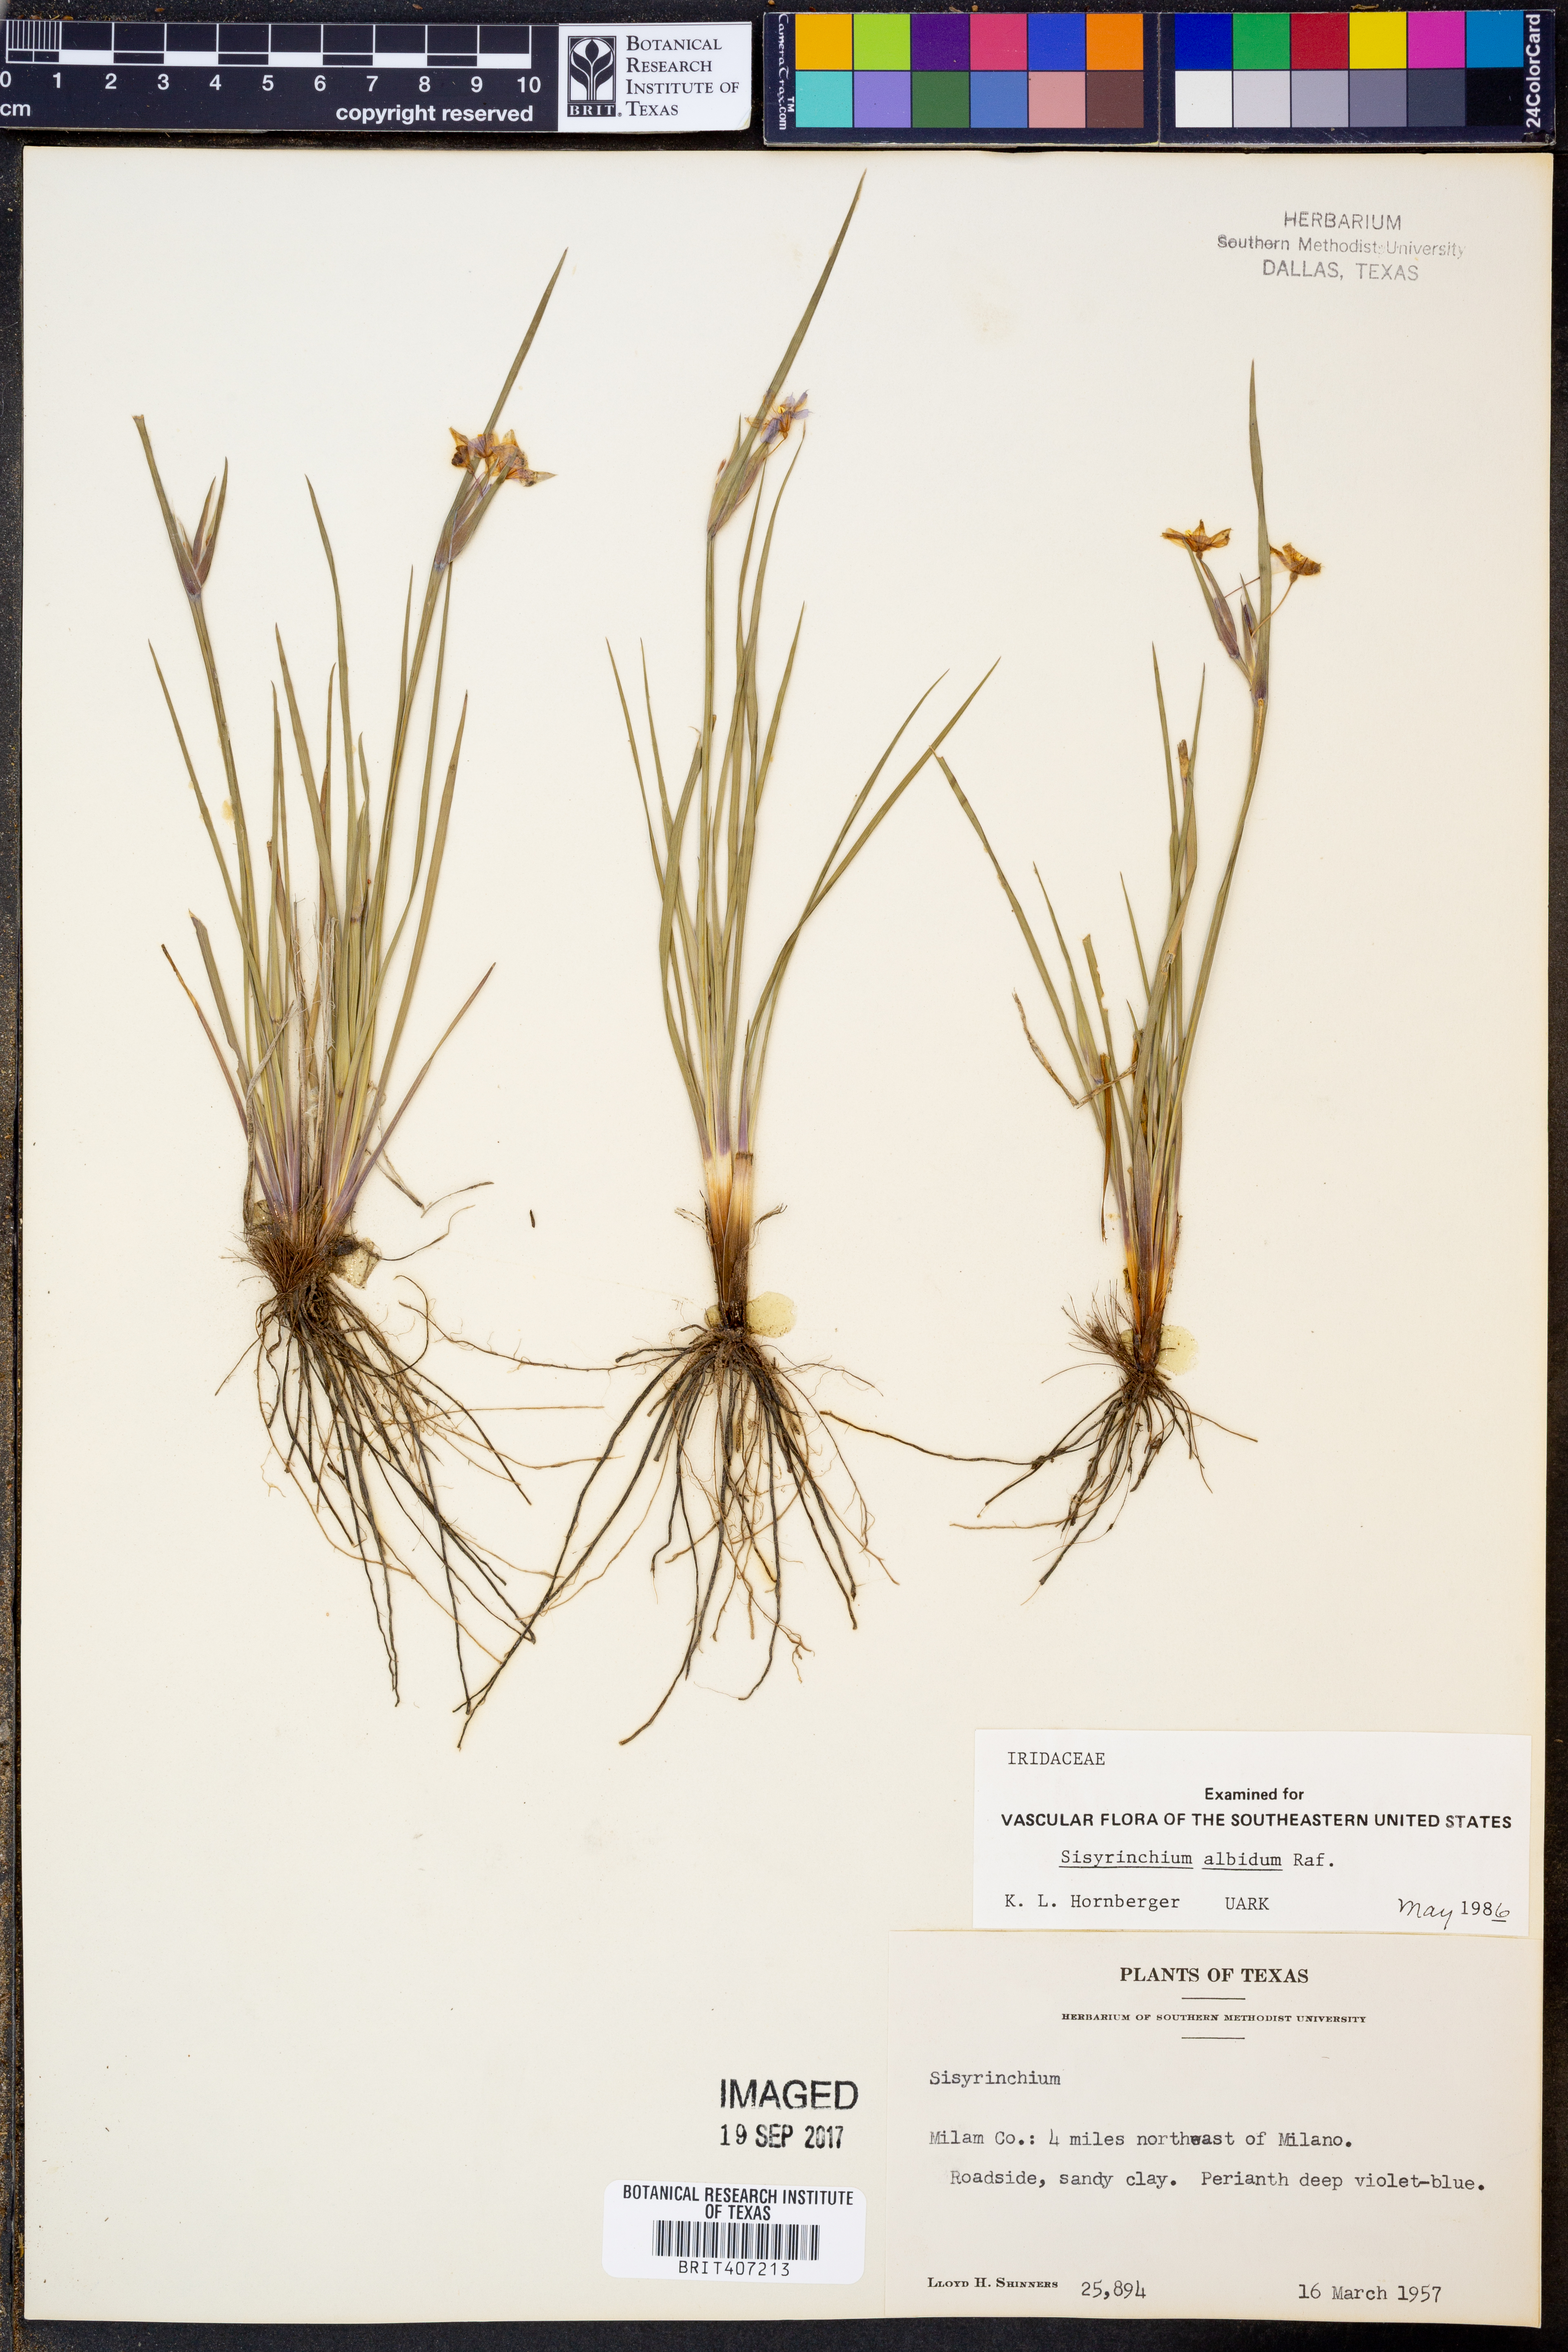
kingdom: Plantae
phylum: Tracheophyta
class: Liliopsida
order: Asparagales
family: Iridaceae
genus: Sisyrinchium
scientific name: Sisyrinchium albidum
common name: Pale blue-eyed-grass
